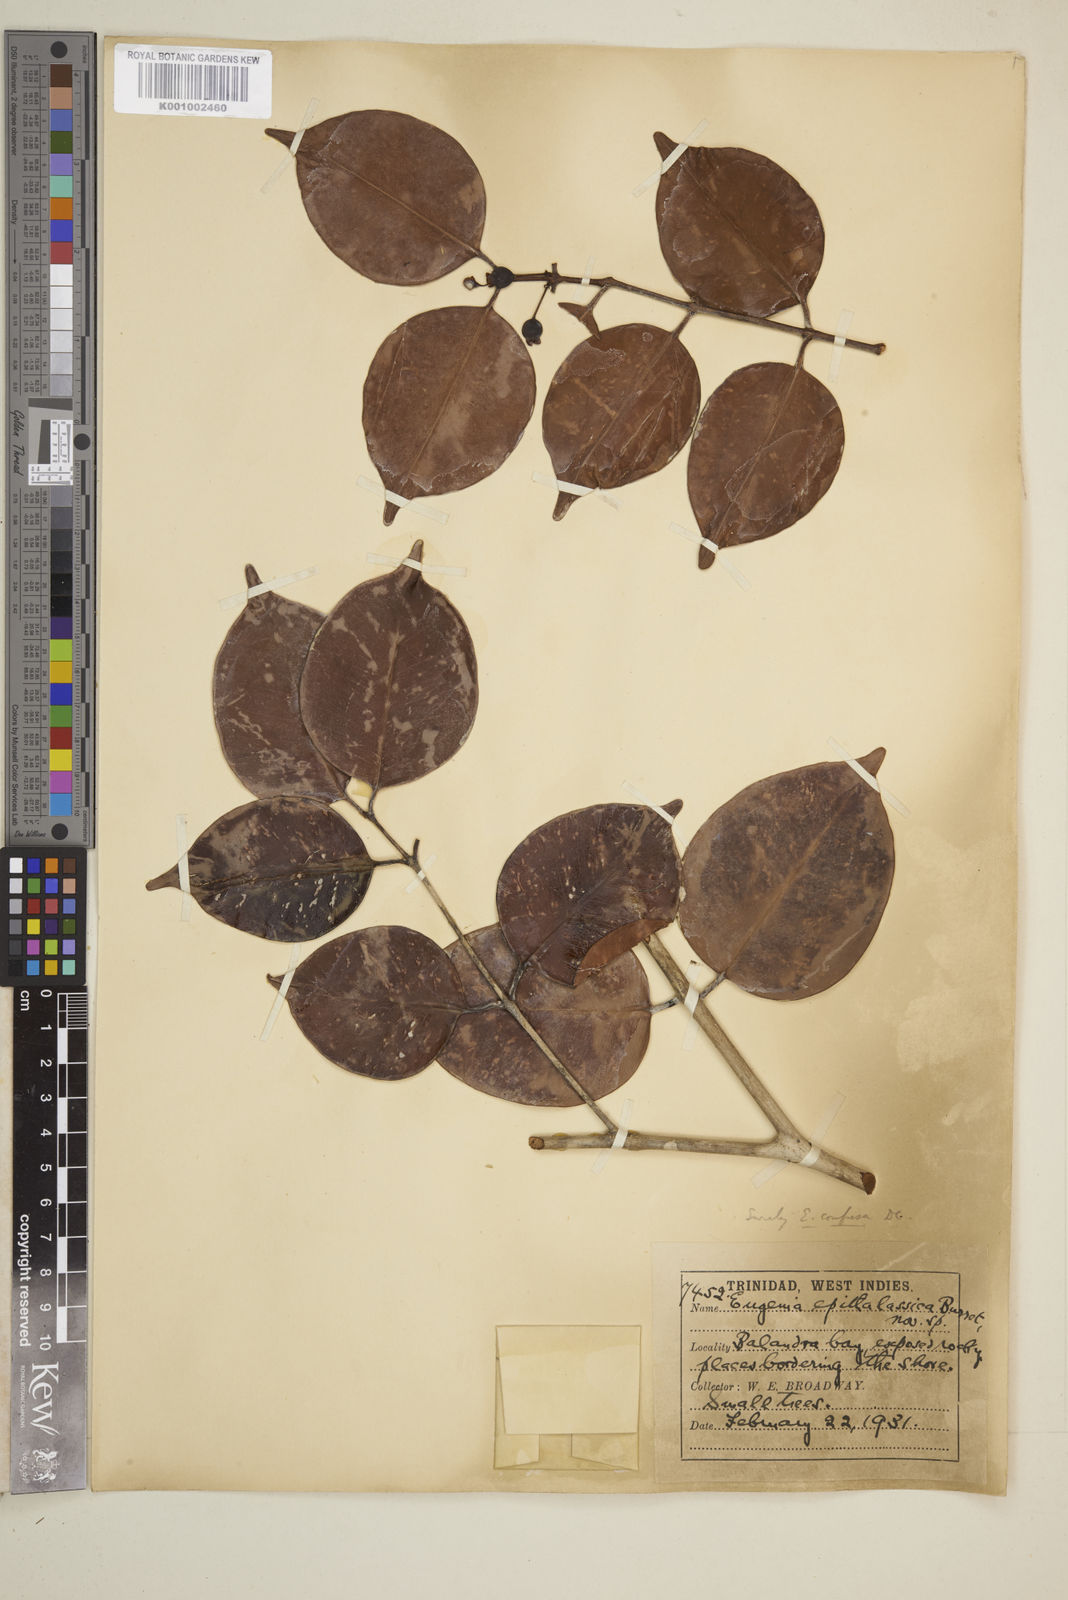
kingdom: Plantae
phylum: Tracheophyta
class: Magnoliopsida
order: Myrtales
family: Myrtaceae
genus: Eugenia
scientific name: Eugenia confusa
